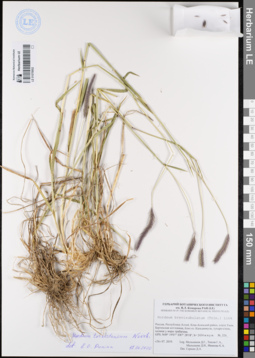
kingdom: Plantae
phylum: Tracheophyta
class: Liliopsida
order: Poales
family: Poaceae
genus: Hordeum
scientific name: Hordeum brevisubulatum
